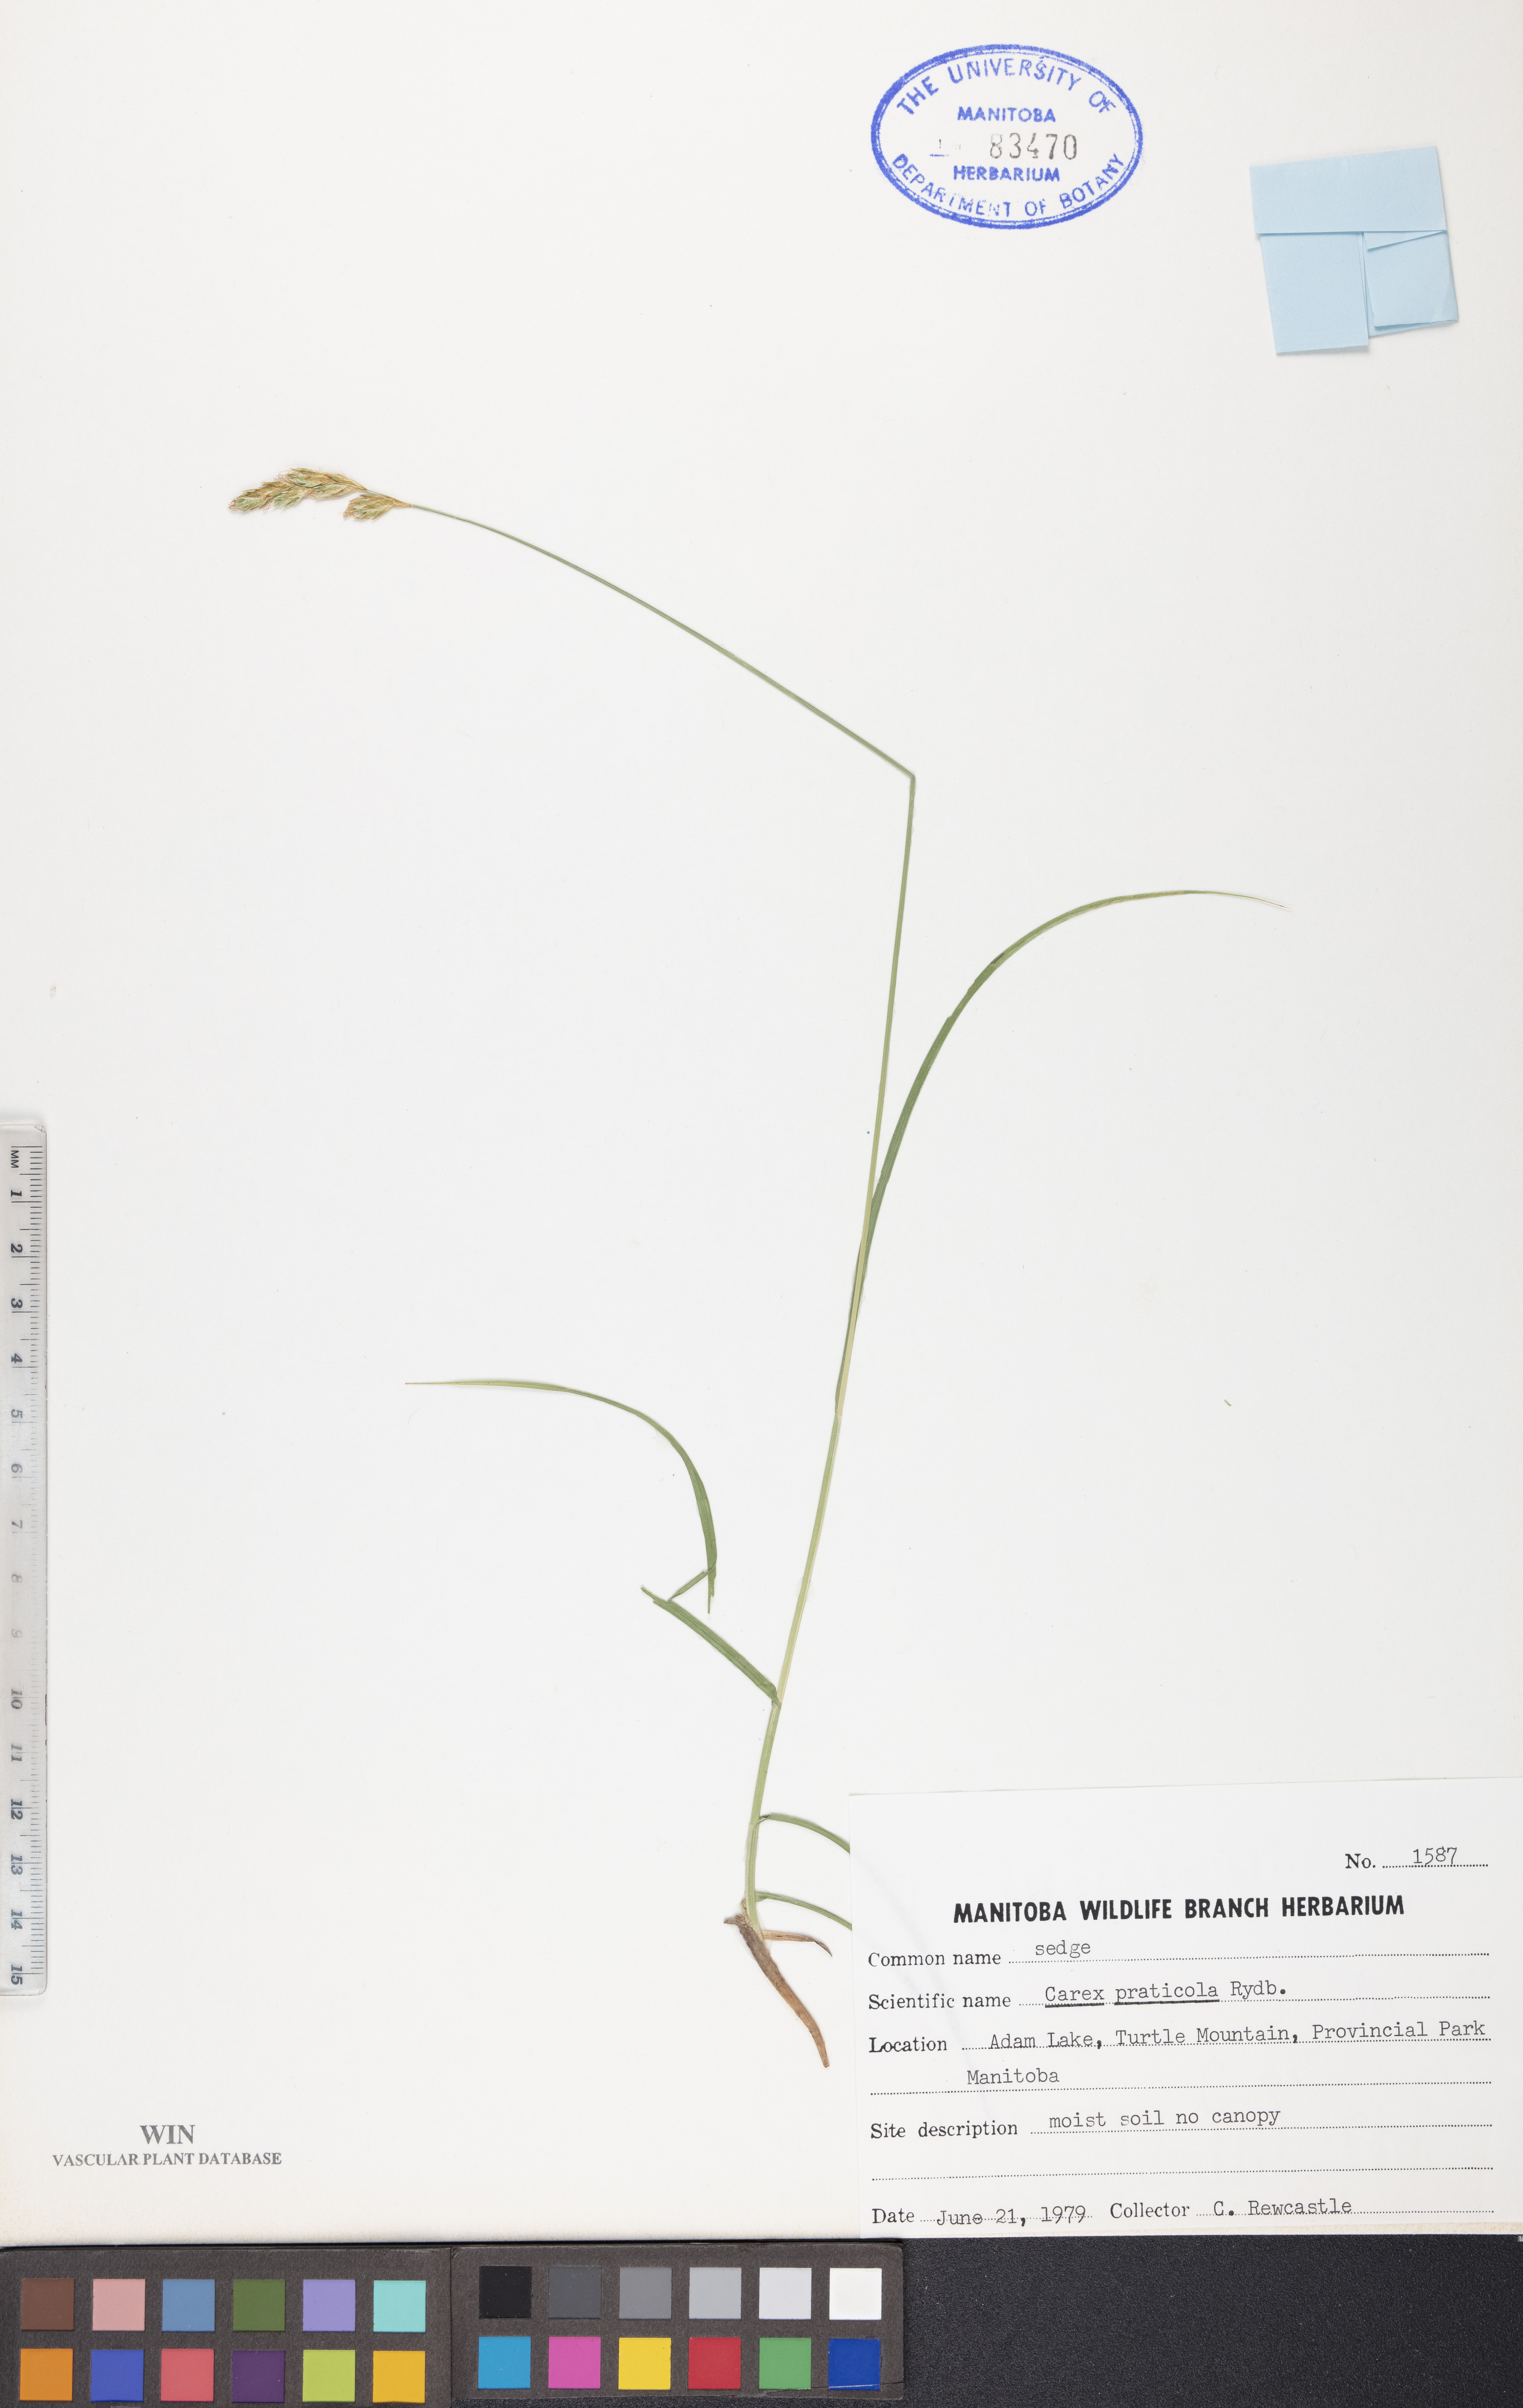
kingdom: Plantae
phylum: Tracheophyta
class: Liliopsida
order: Poales
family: Cyperaceae
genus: Carex
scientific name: Carex praticola
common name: Large-fruited oval sedge
